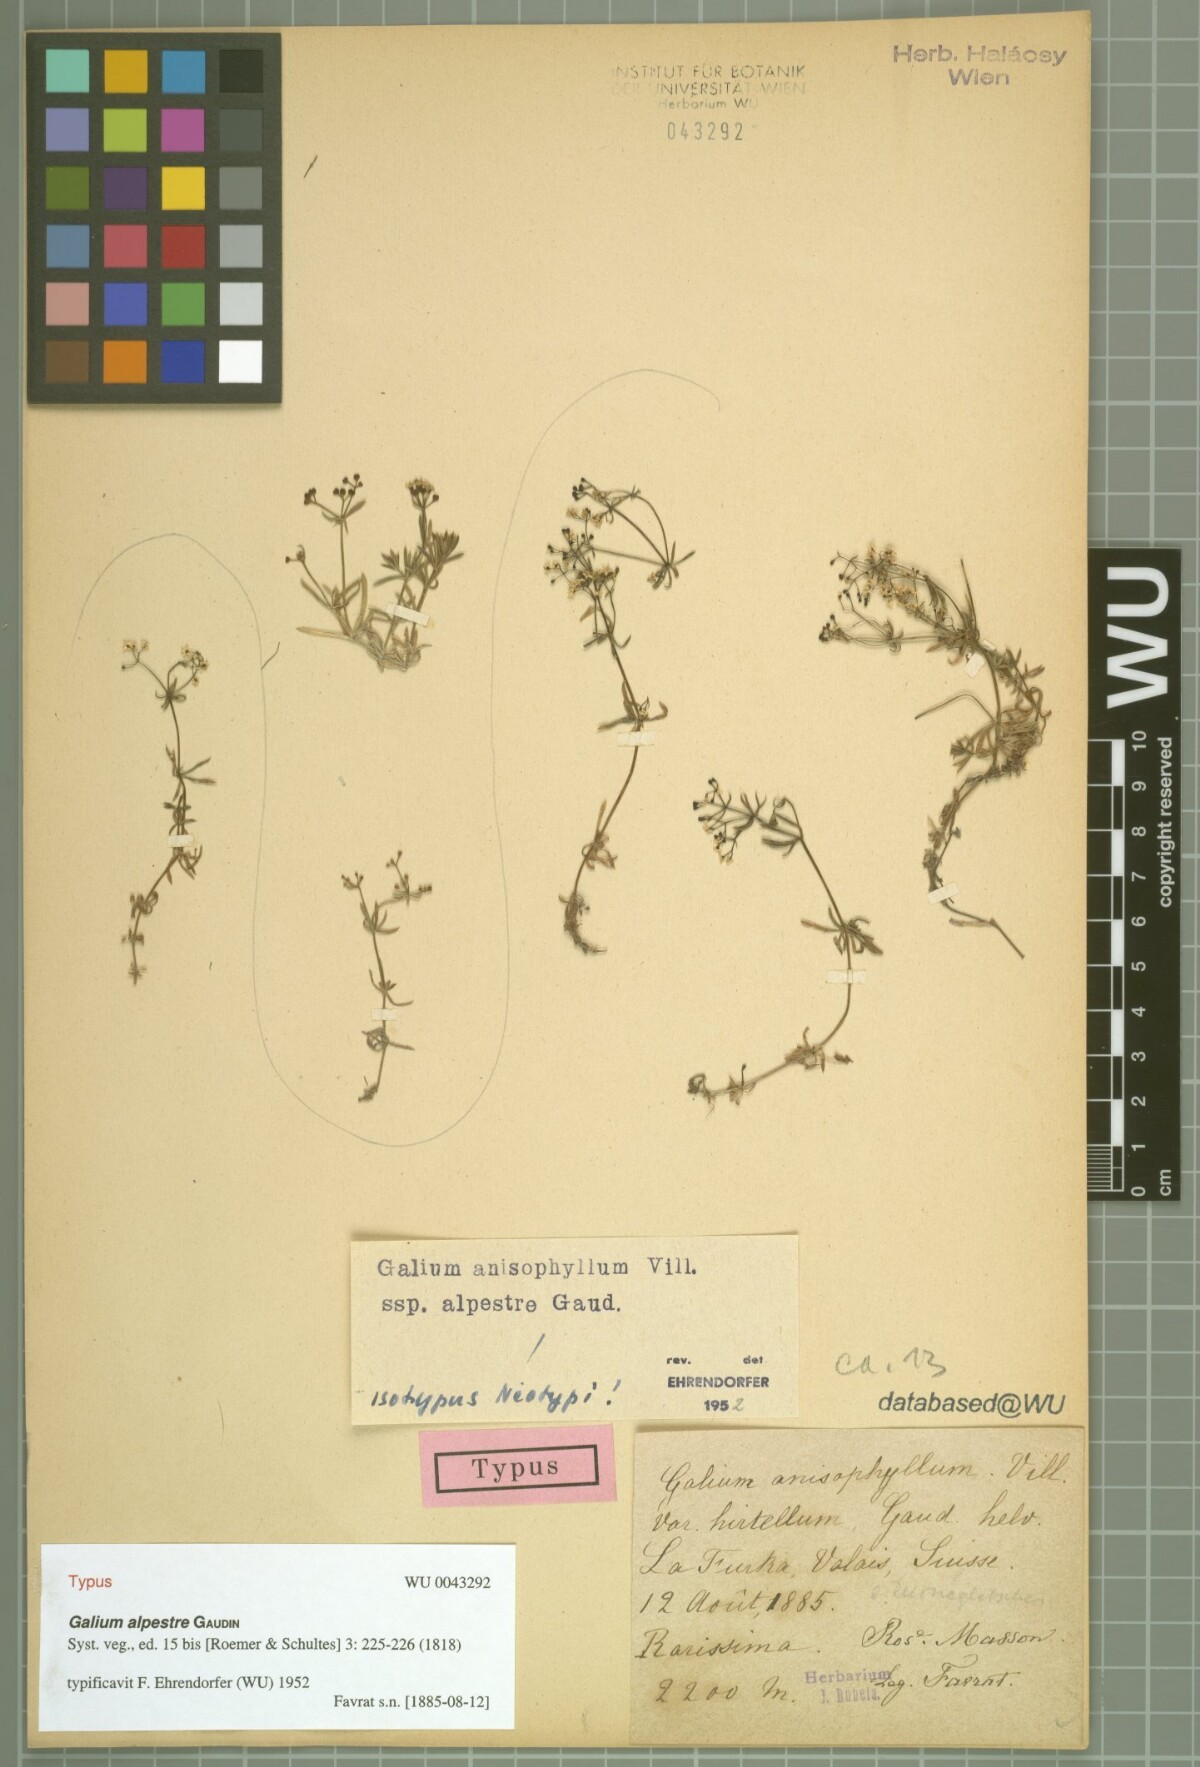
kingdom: Plantae
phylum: Tracheophyta
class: Magnoliopsida
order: Gentianales
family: Rubiaceae
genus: Galium
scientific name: Galium anisophyllon
